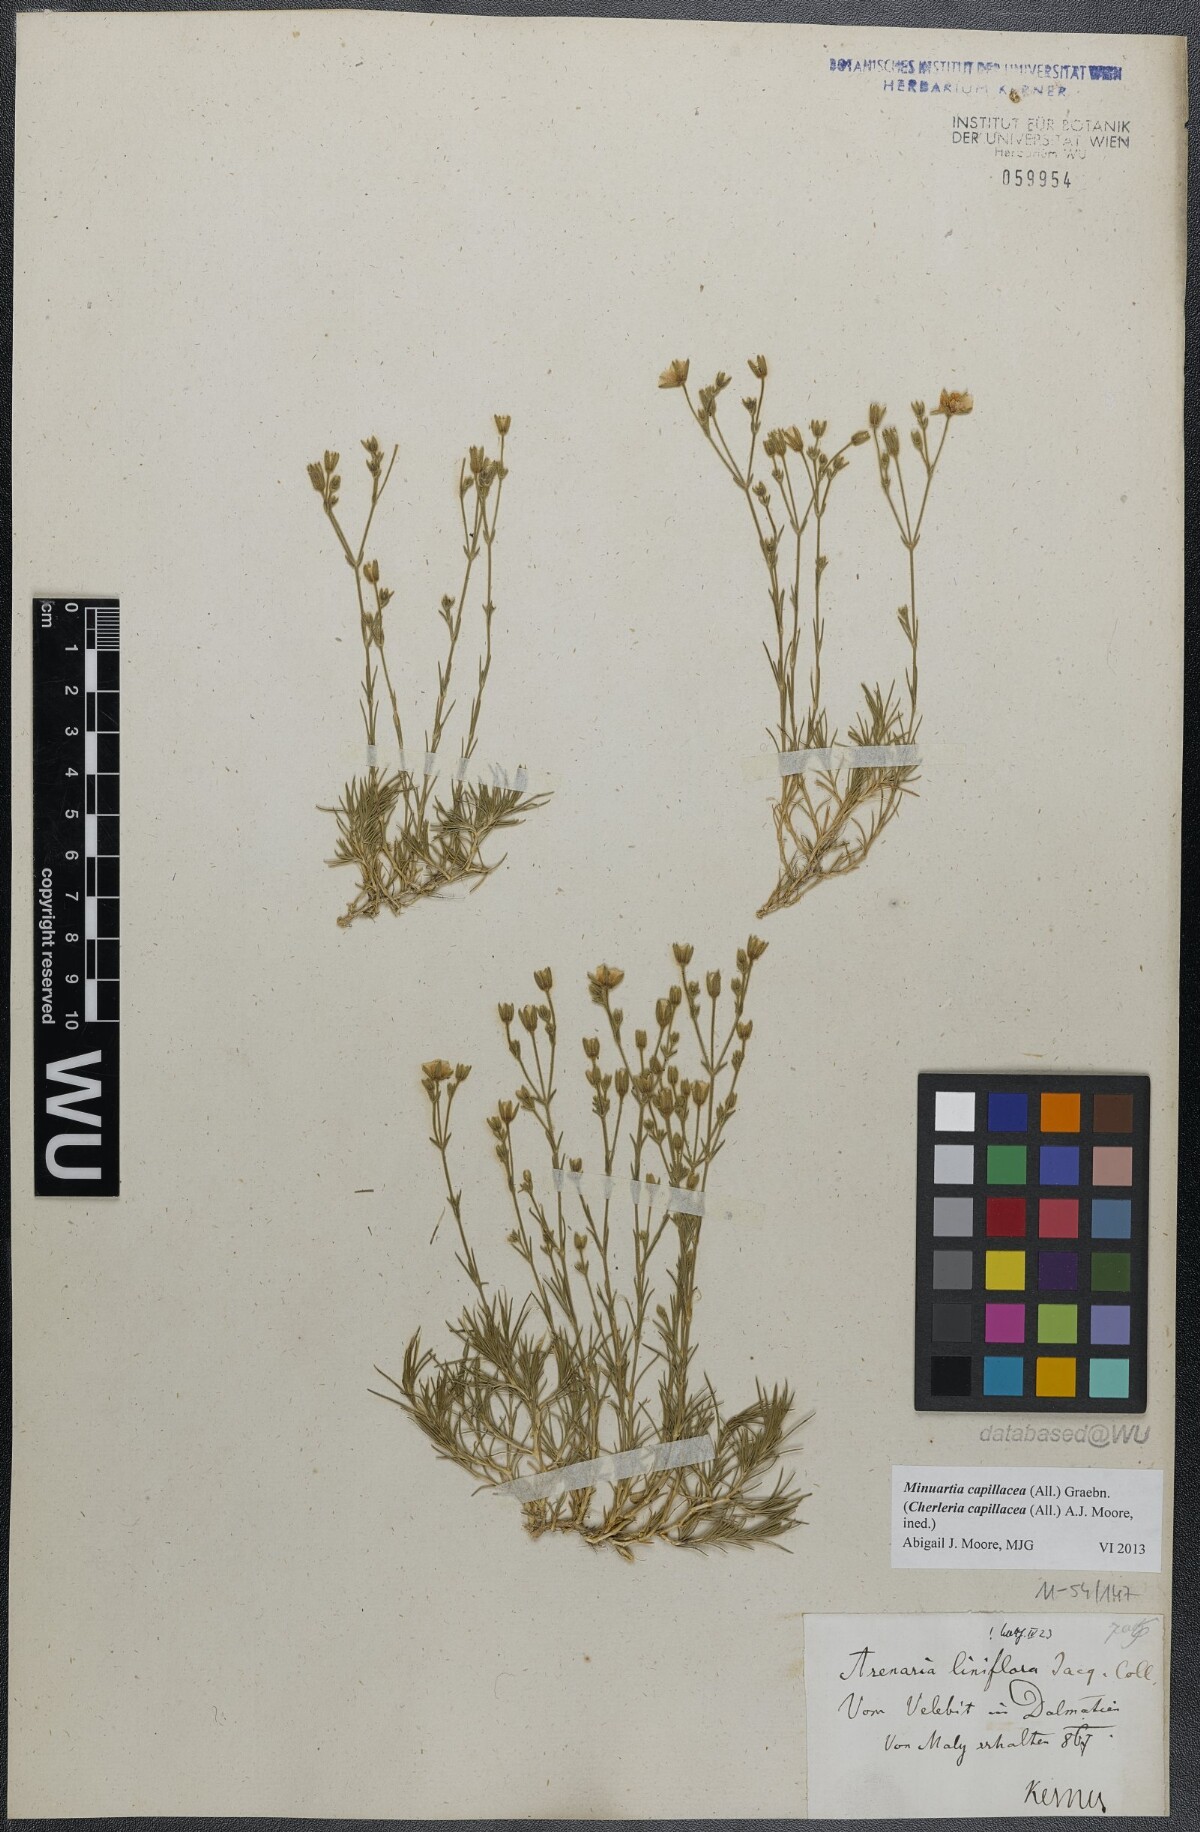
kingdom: Plantae
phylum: Tracheophyta
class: Magnoliopsida
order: Caryophyllales
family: Caryophyllaceae
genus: Cherleria
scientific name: Cherleria capillacea
